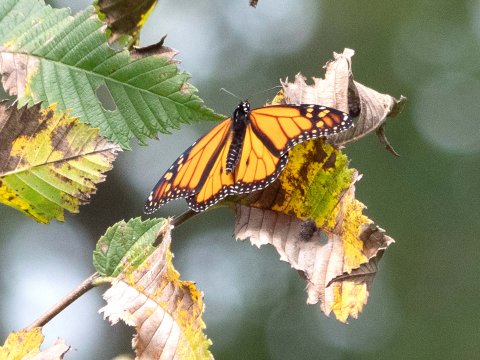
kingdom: Animalia
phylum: Arthropoda
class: Insecta
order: Lepidoptera
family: Nymphalidae
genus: Danaus
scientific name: Danaus plexippus
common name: Monarch
